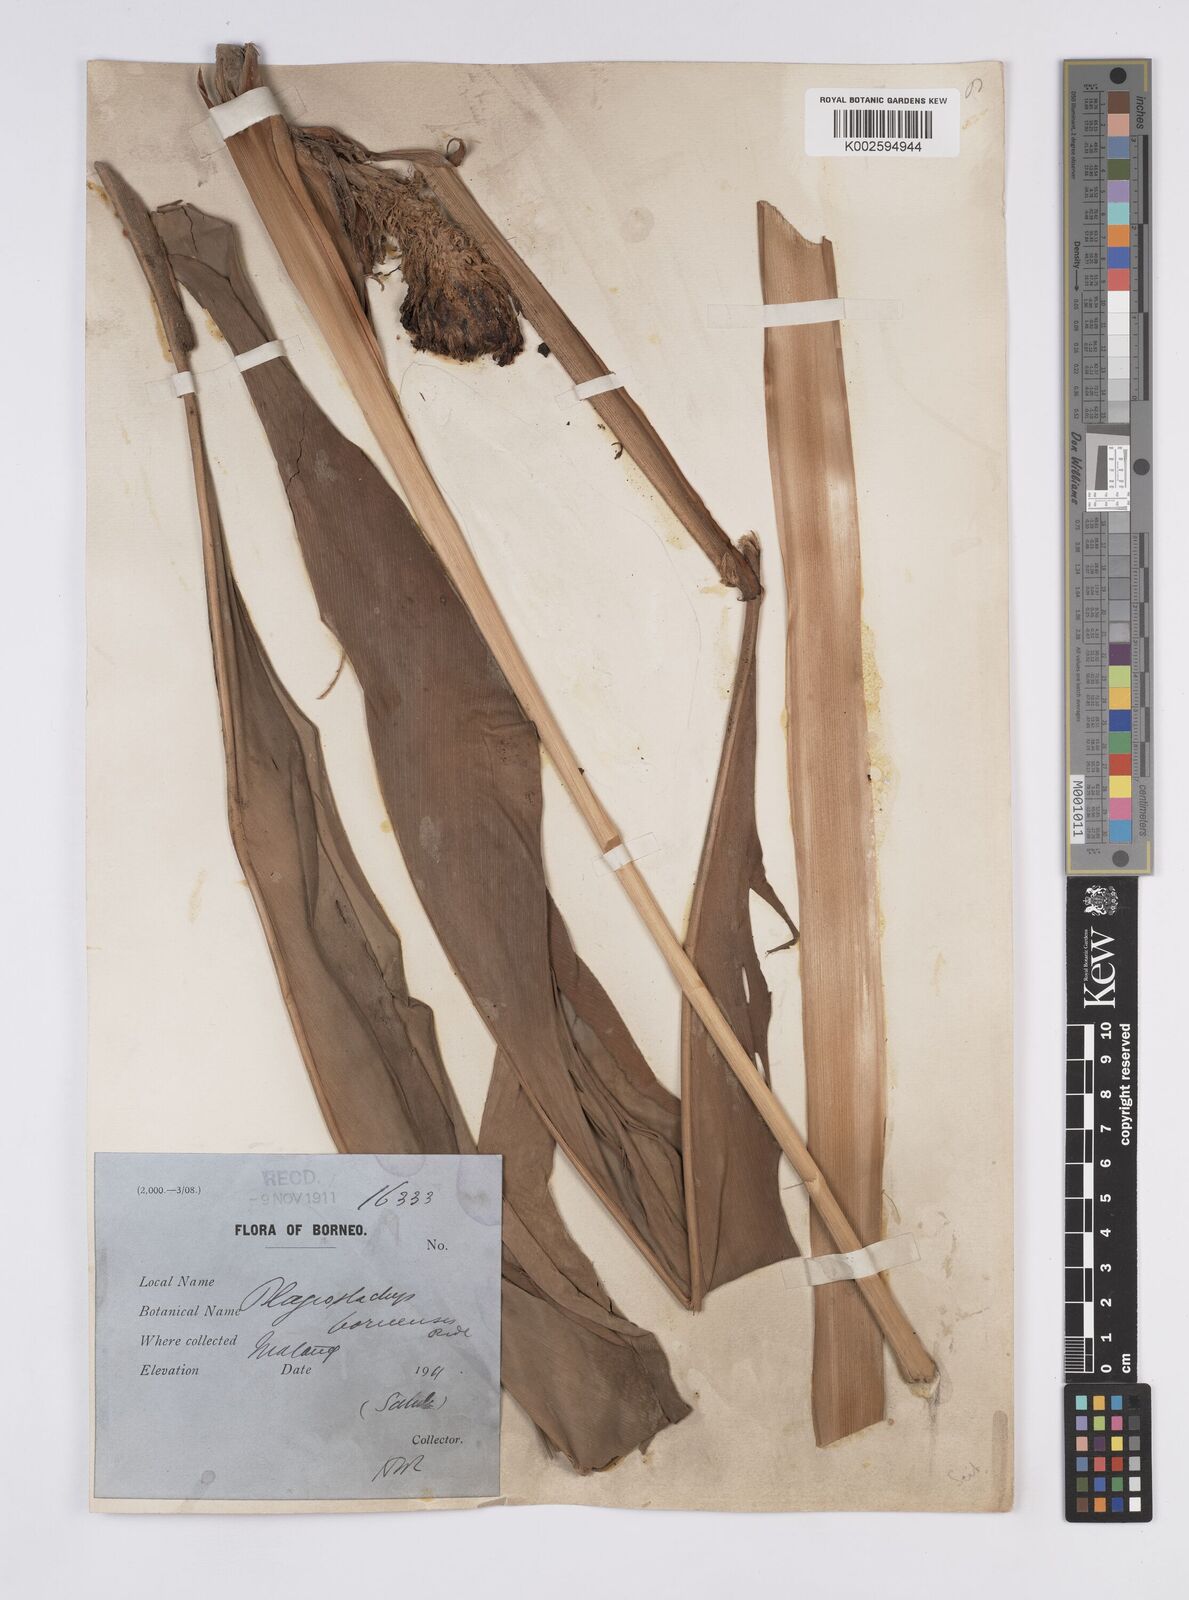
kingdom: Plantae
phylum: Tracheophyta
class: Liliopsida
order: Zingiberales
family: Zingiberaceae
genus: Plagiostachys
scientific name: Plagiostachys strobilifera
